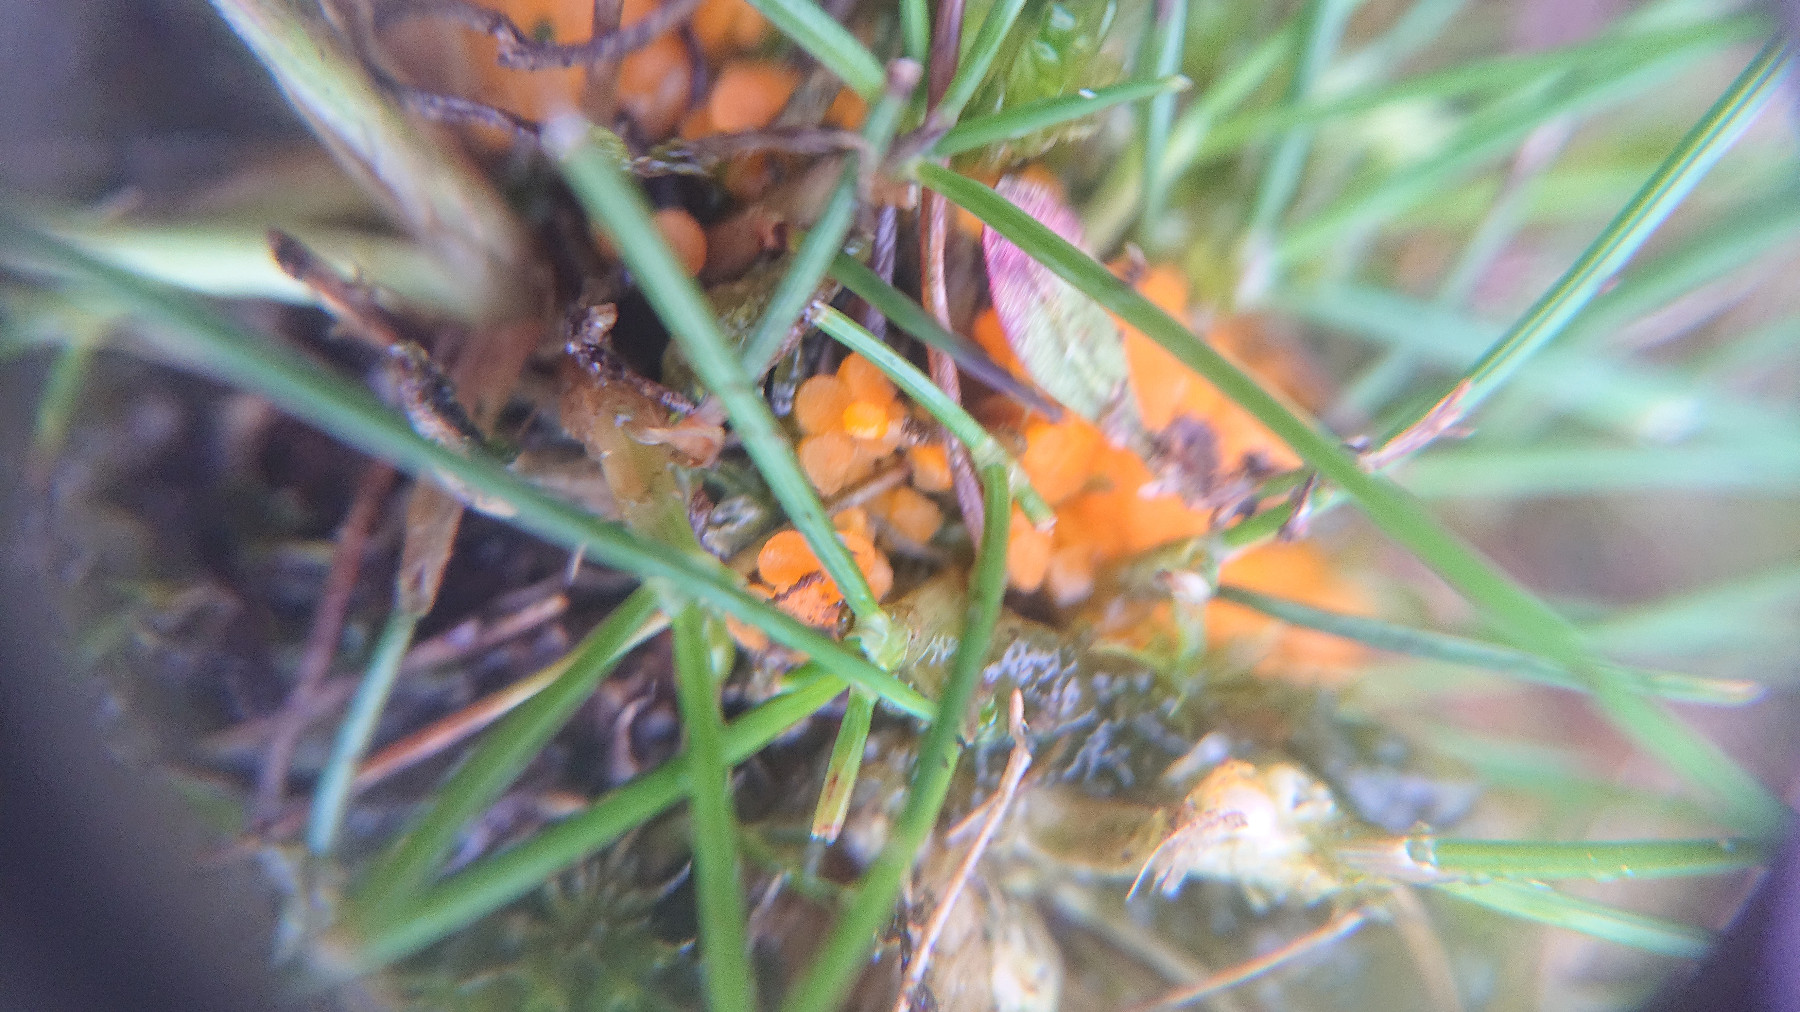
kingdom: Fungi
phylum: Ascomycota
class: Pezizomycetes
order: Pezizales
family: Pyronemataceae
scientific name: Pyronemataceae
